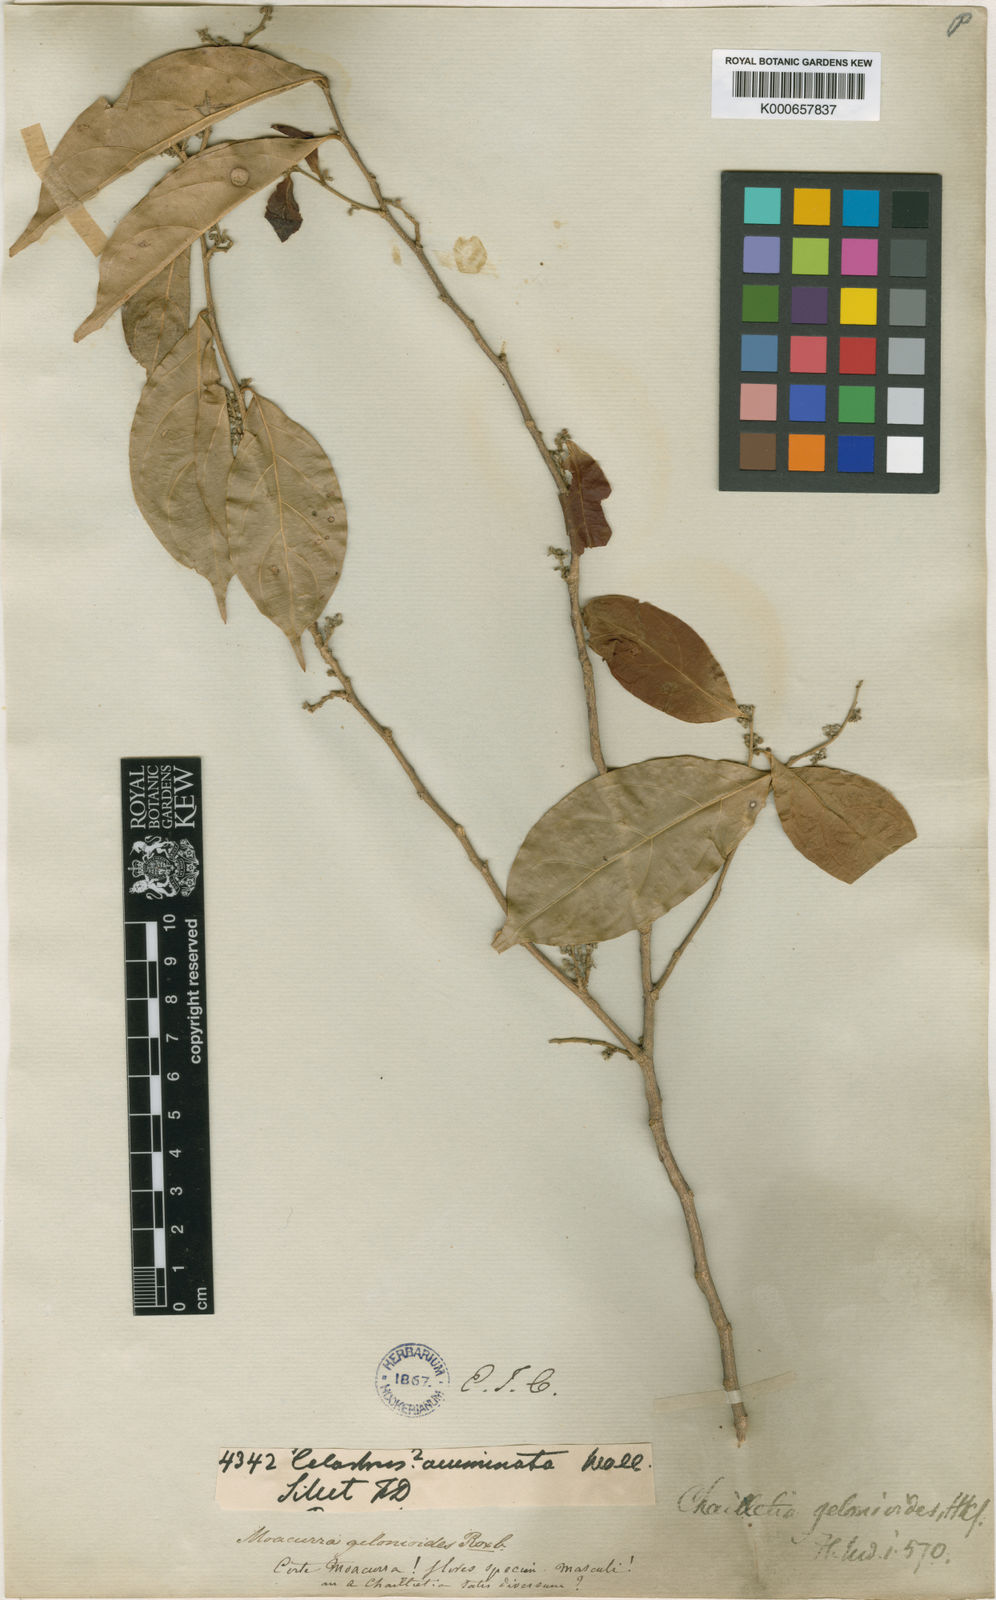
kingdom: Plantae
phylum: Tracheophyta
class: Magnoliopsida
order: Malpighiales
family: Dichapetalaceae
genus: Dichapetalum
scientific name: Dichapetalum gelonioides
